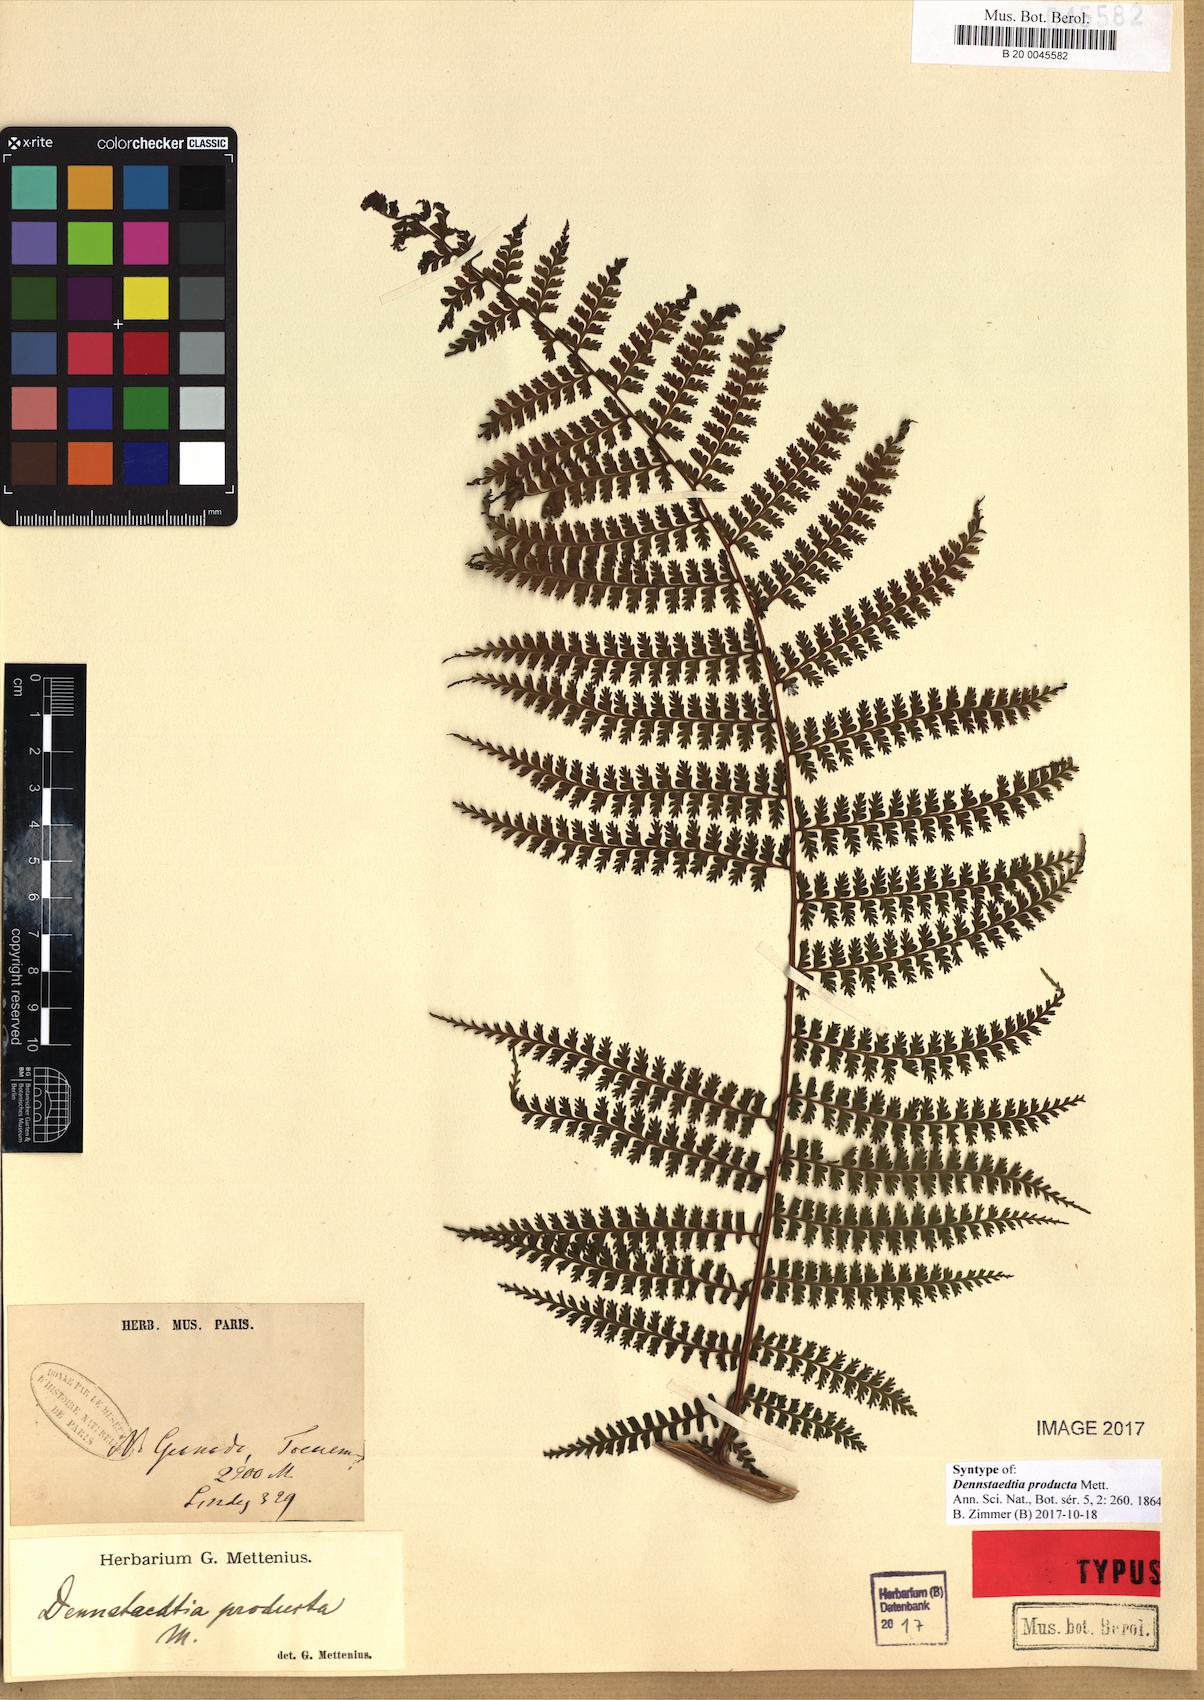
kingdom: Plantae
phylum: Tracheophyta
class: Polypodiopsida
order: Polypodiales
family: Dennstaedtiaceae
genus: Dennstaedtia
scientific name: Dennstaedtia producta
